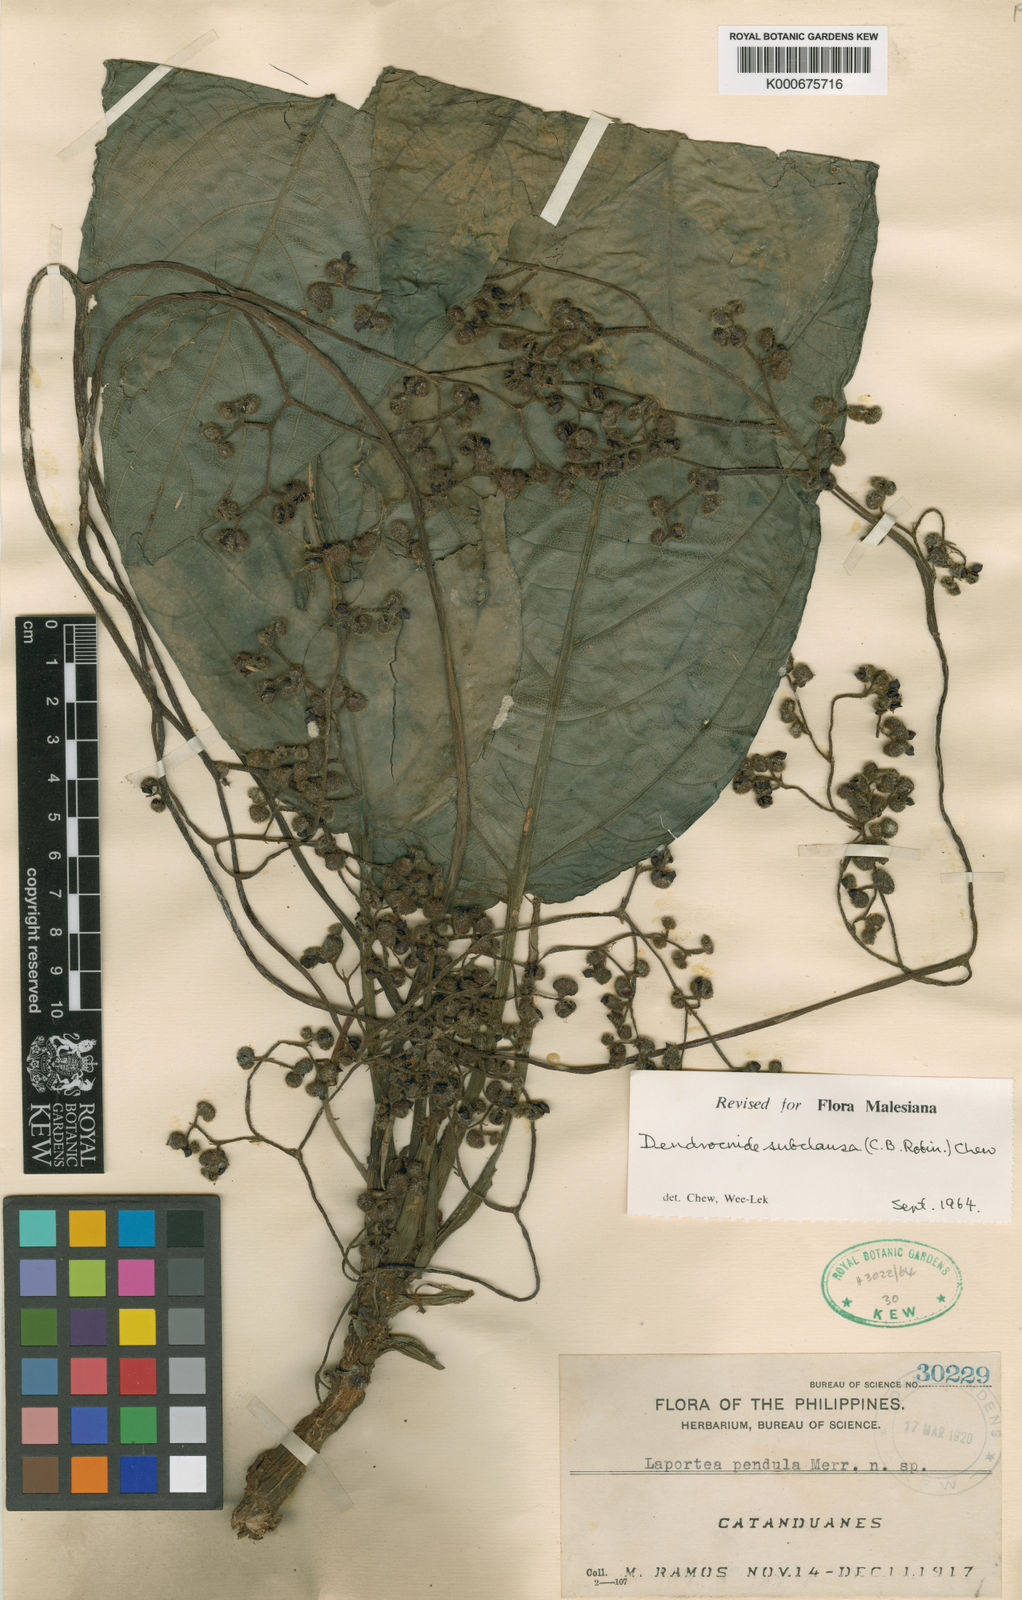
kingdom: Plantae
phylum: Tracheophyta
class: Magnoliopsida
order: Rosales
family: Urticaceae
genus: Dendrocnide
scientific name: Dendrocnide subclausa
